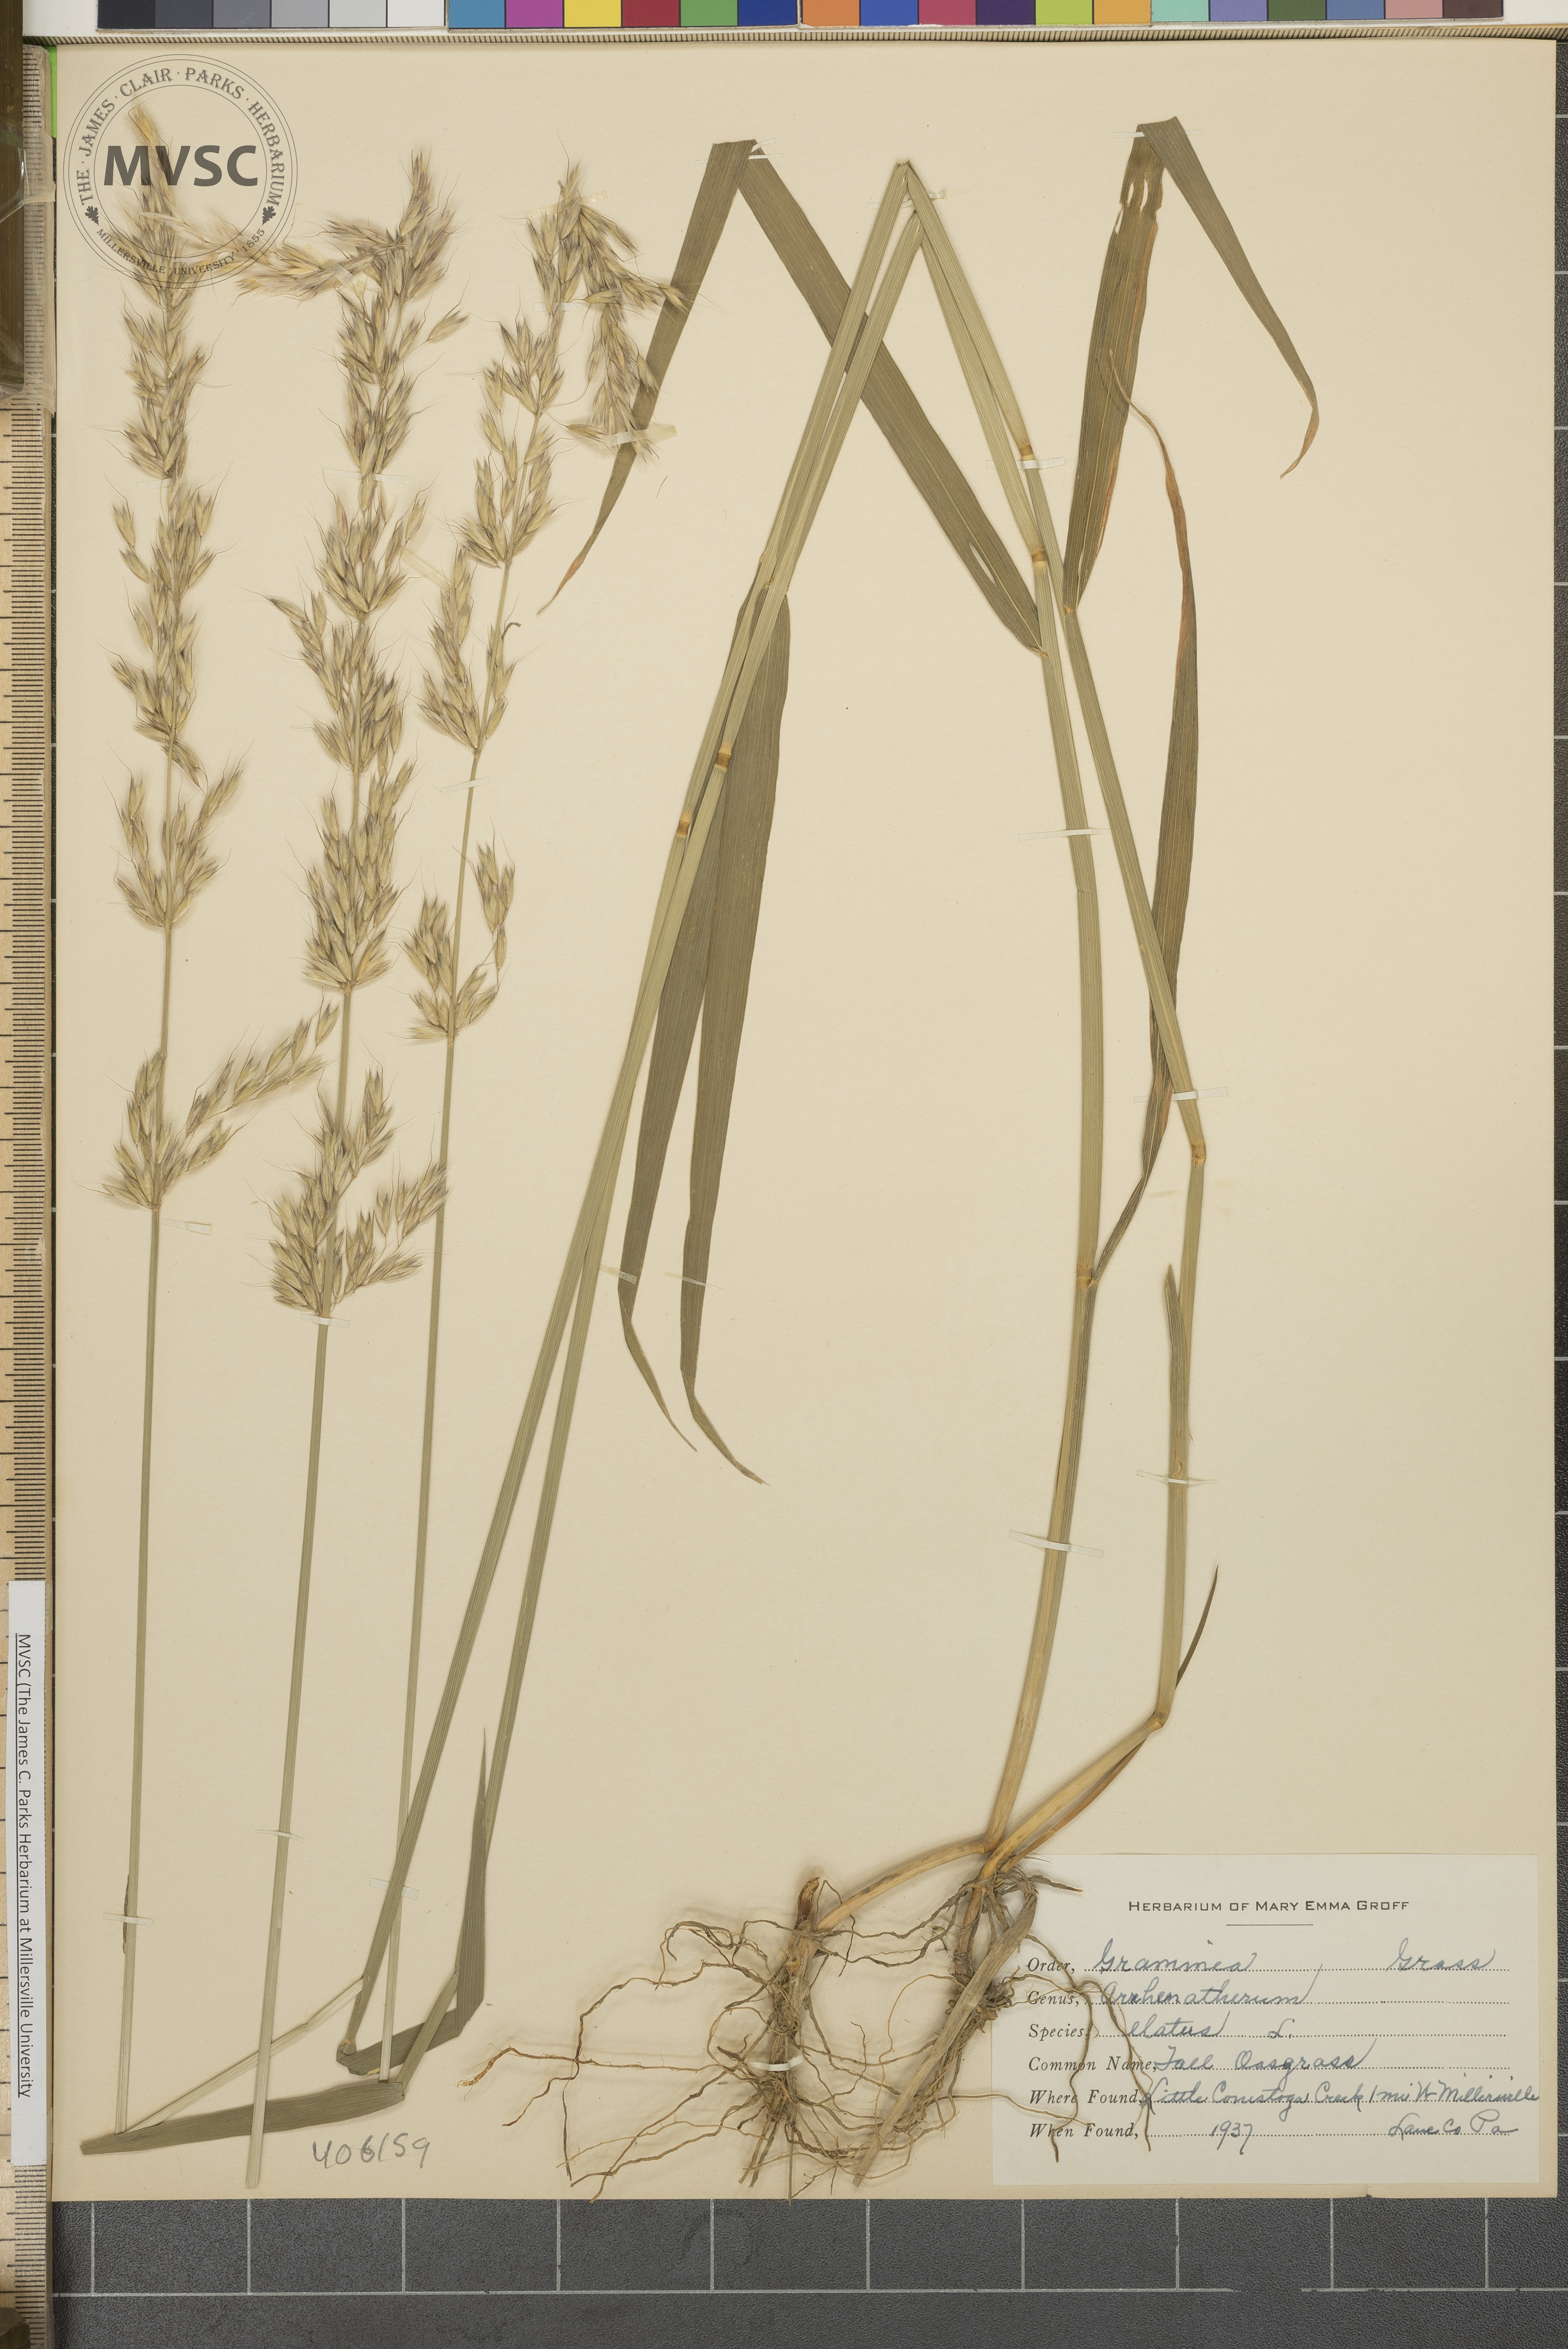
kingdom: Plantae
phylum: Tracheophyta
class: Liliopsida
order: Poales
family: Poaceae
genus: Arrhenatherum
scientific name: Arrhenatherum elatius
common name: Tall oatgrass
